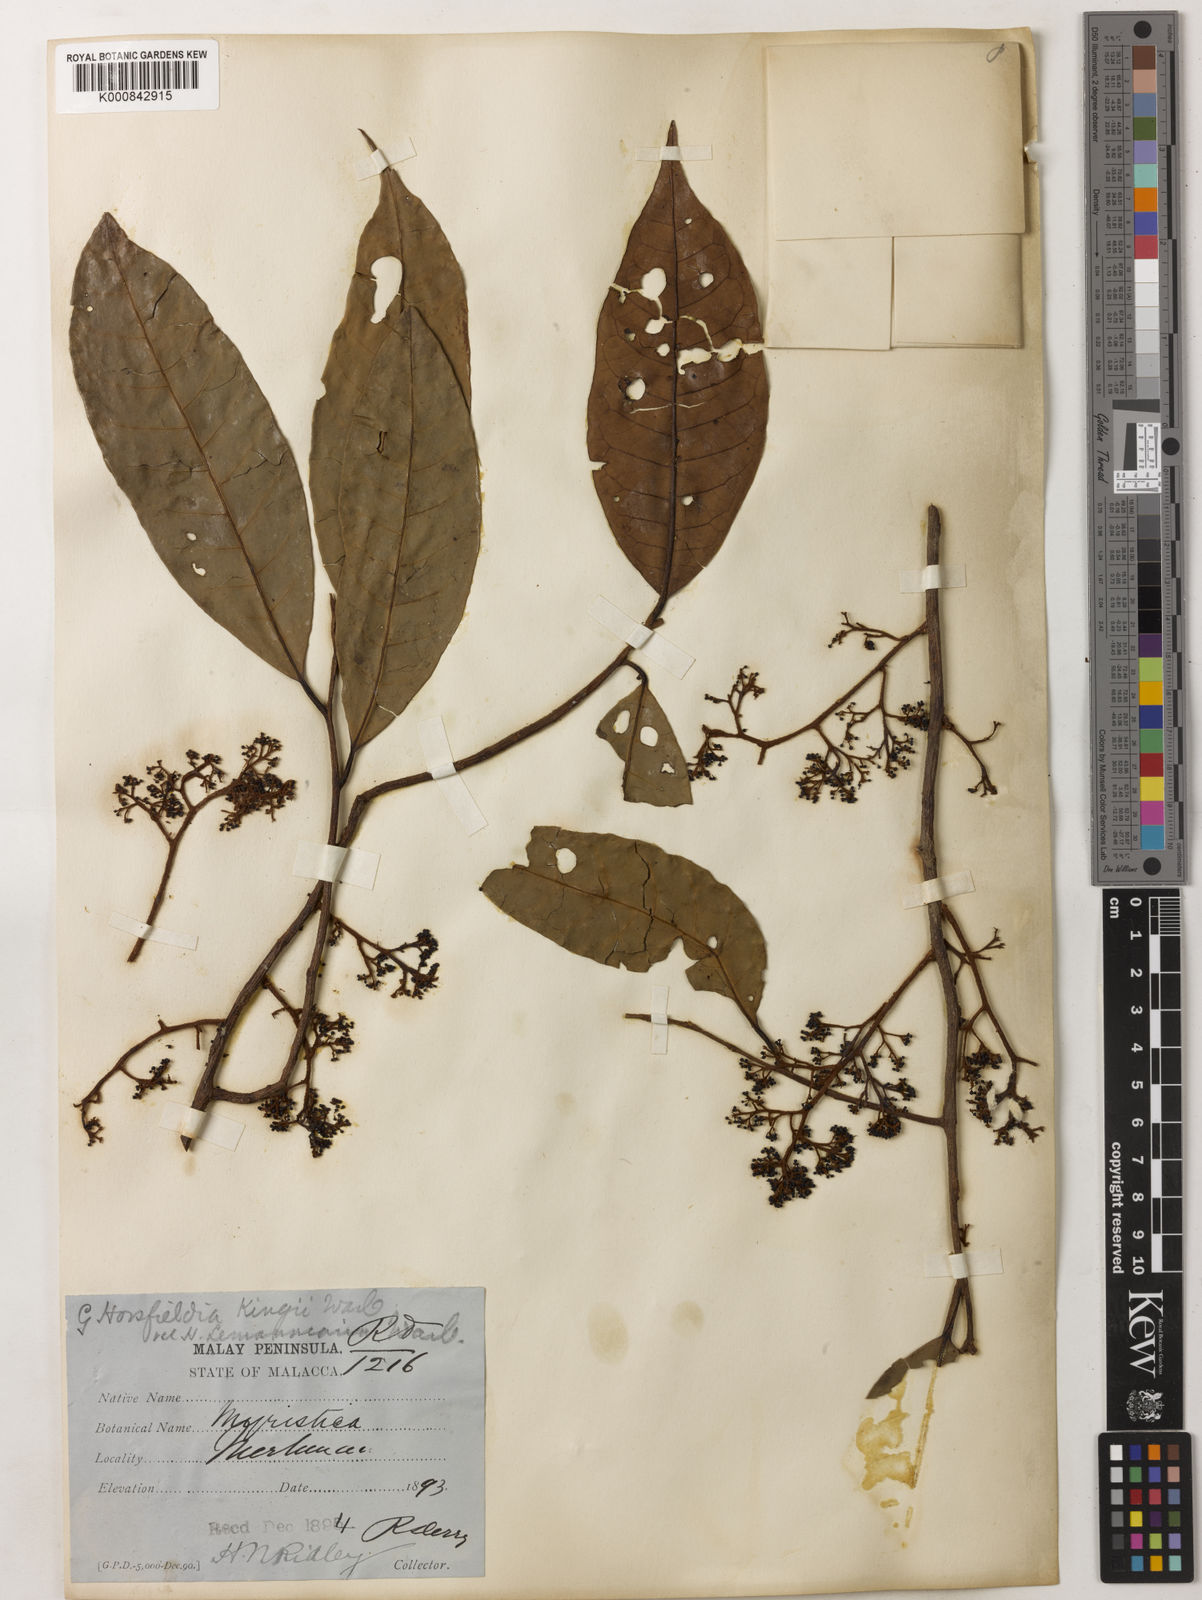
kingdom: Plantae
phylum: Tracheophyta
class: Magnoliopsida
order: Magnoliales
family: Myristicaceae
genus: Horsfieldia
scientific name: Horsfieldia
